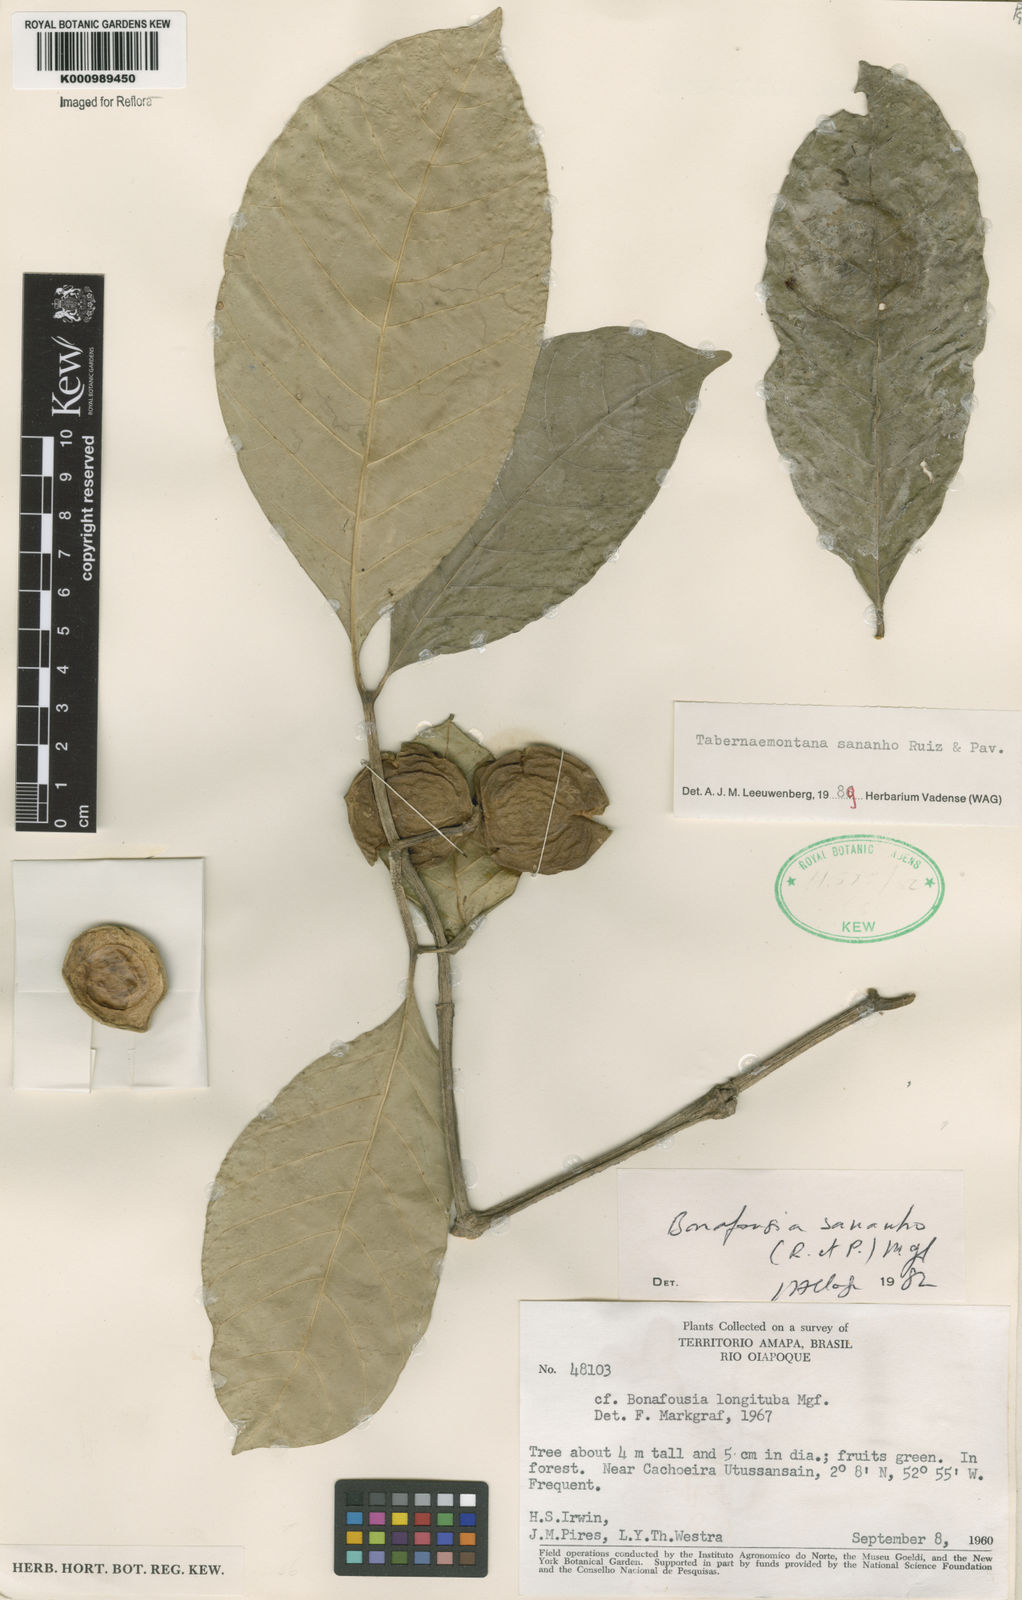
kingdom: Plantae
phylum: Tracheophyta
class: Magnoliopsida
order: Gentianales
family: Apocynaceae
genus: Tabernaemontana
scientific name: Tabernaemontana sananho
